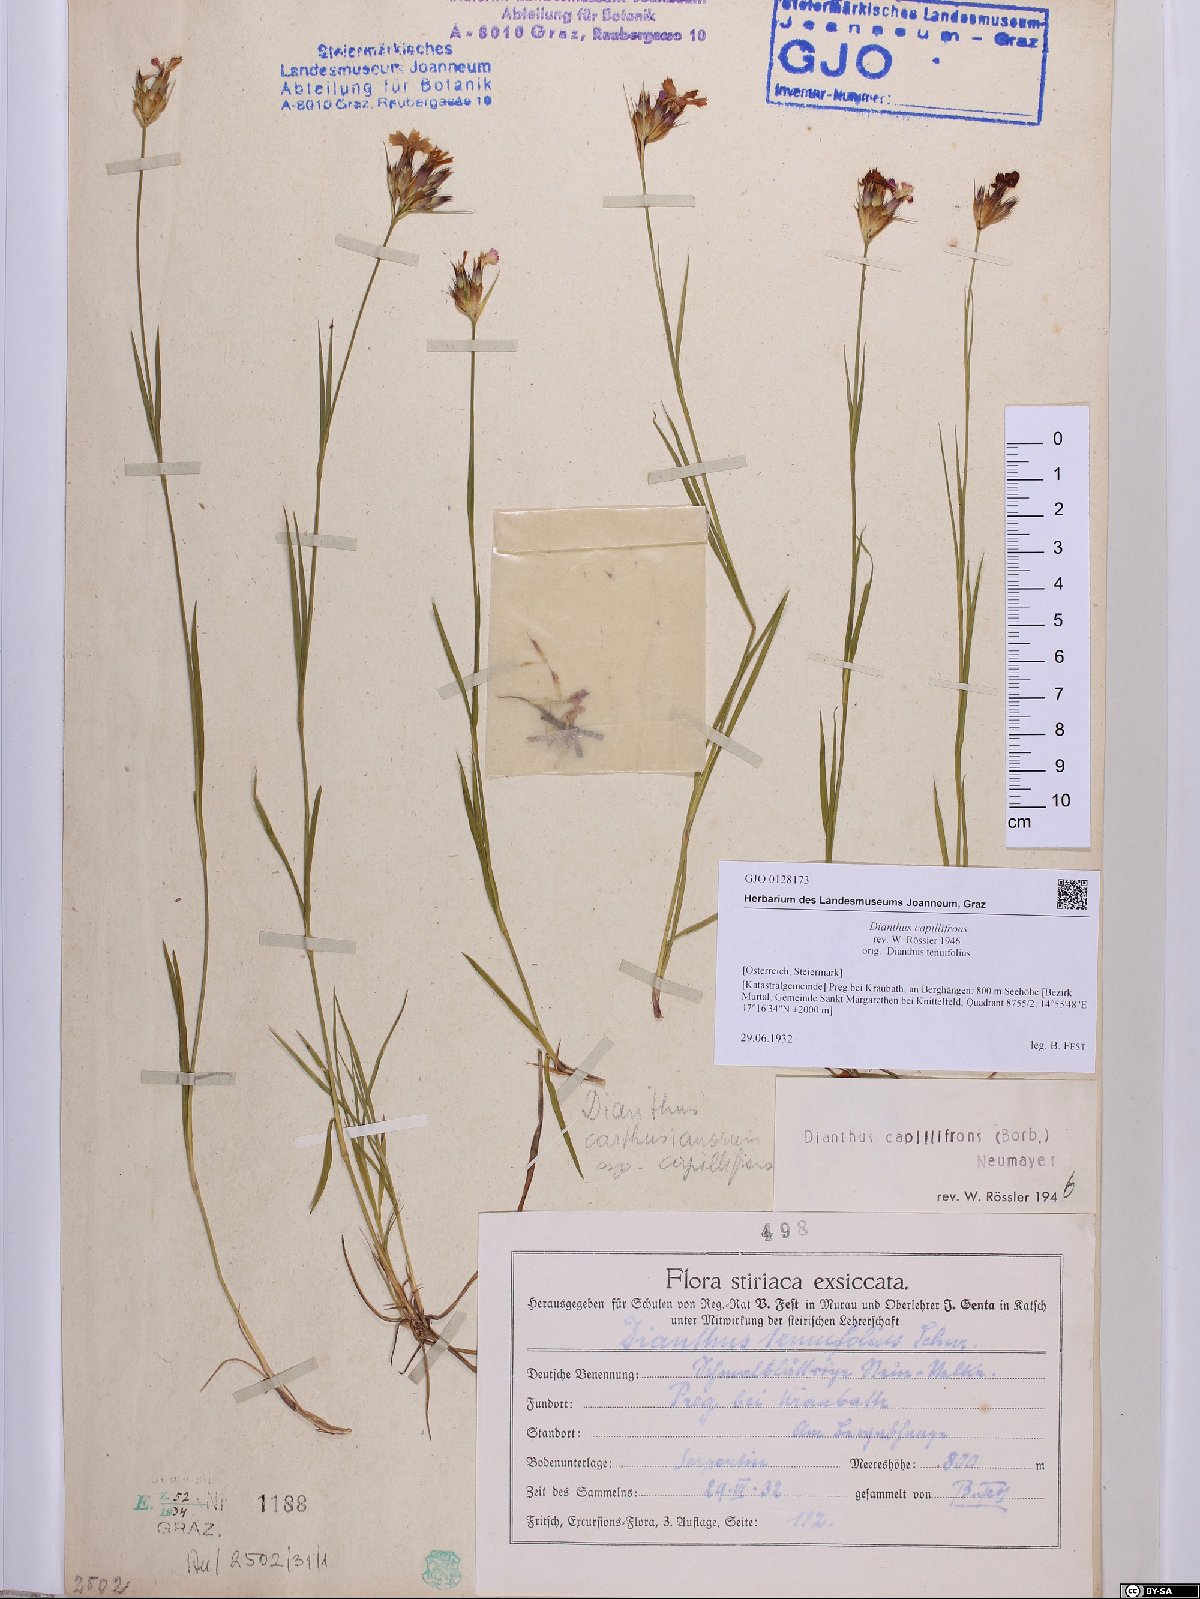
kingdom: Plantae
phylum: Tracheophyta
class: Magnoliopsida
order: Caryophyllales
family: Caryophyllaceae
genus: Dianthus
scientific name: Dianthus carthusianorum
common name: Carthusian pink
